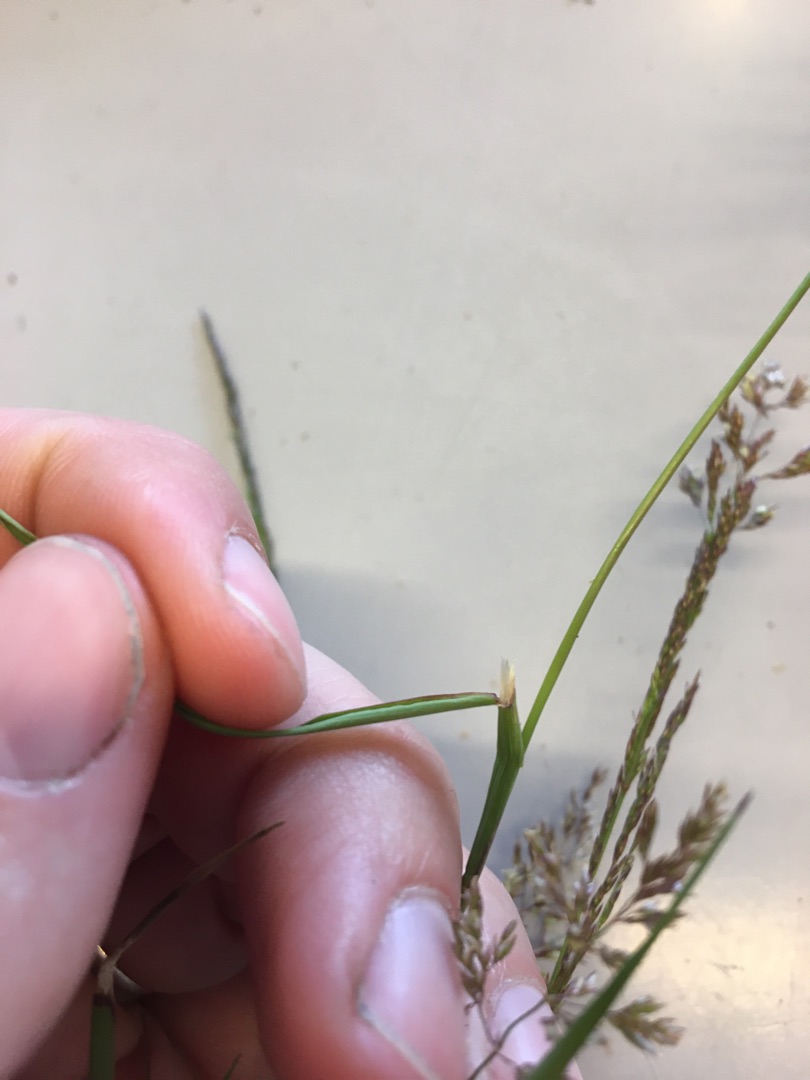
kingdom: Plantae
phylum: Tracheophyta
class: Liliopsida
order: Poales
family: Poaceae
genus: Agrostis
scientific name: Agrostis stolonifera
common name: Kryb-hvene
